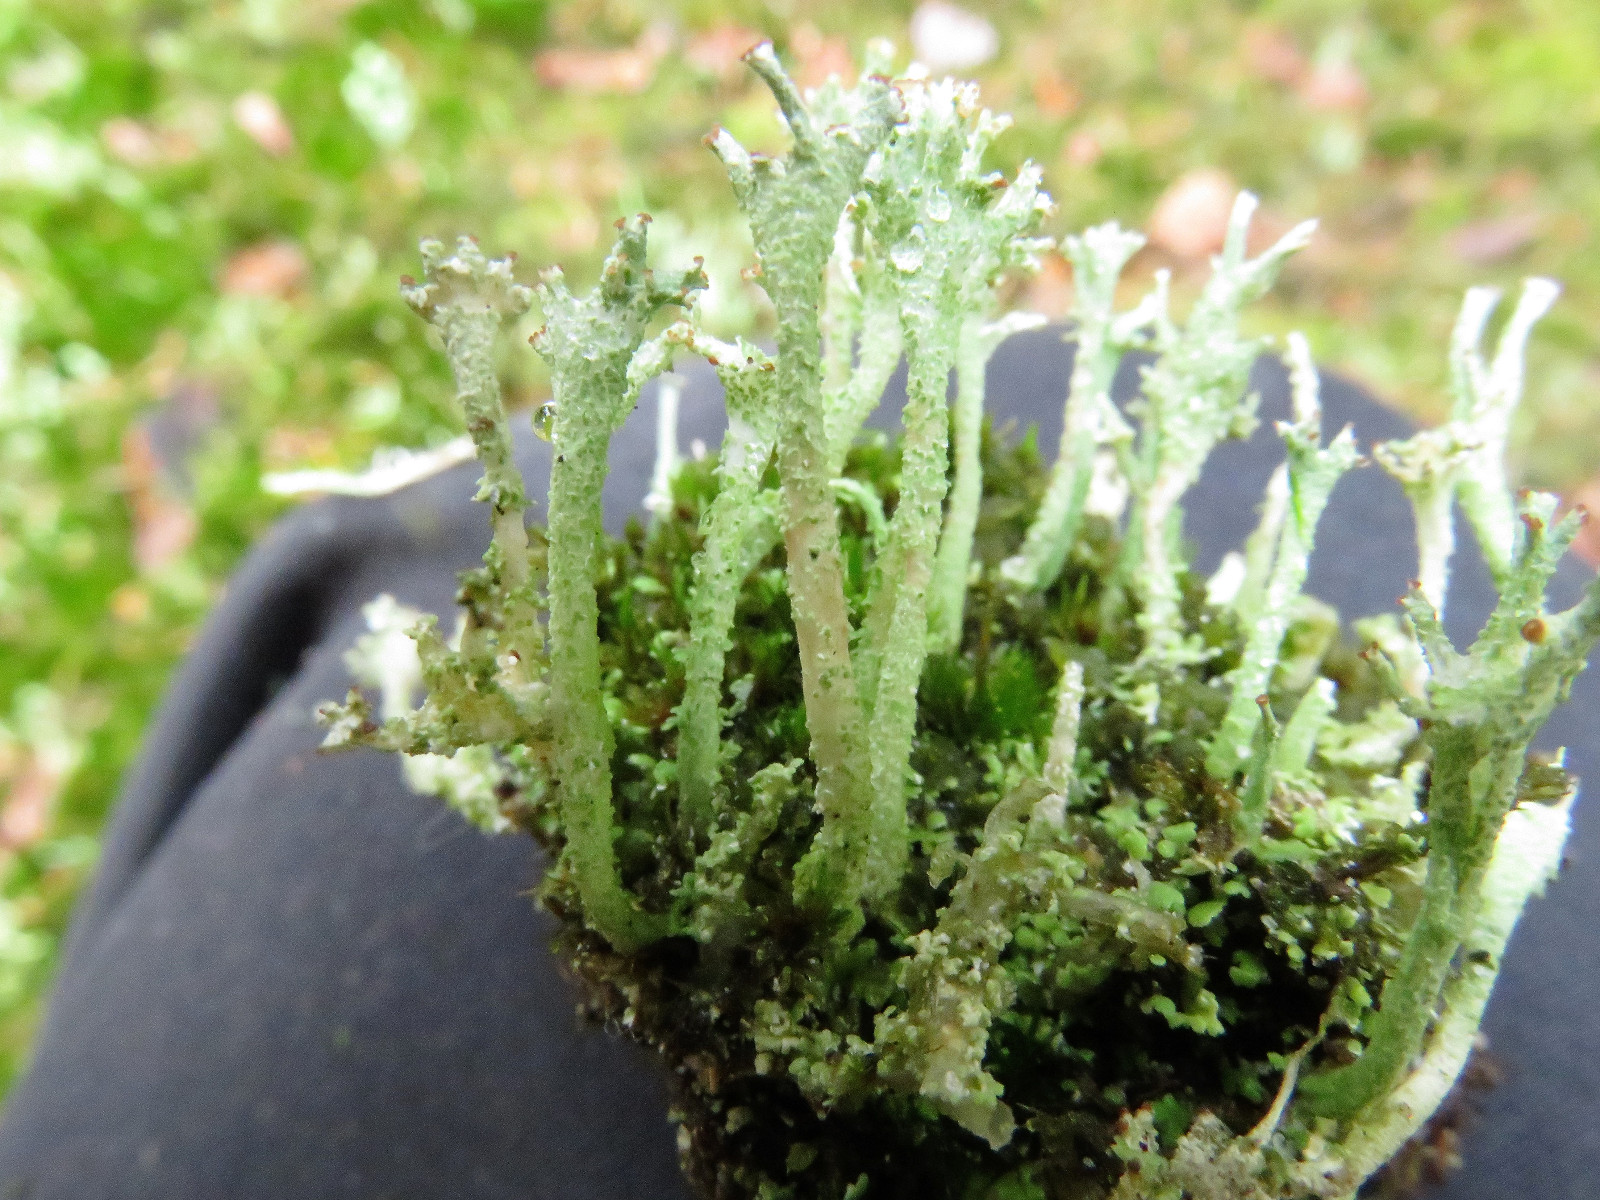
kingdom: Fungi
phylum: Ascomycota
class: Lecanoromycetes
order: Lecanorales
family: Cladoniaceae
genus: Cladonia
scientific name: Cladonia ramulosa
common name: kliddet bægerlav
